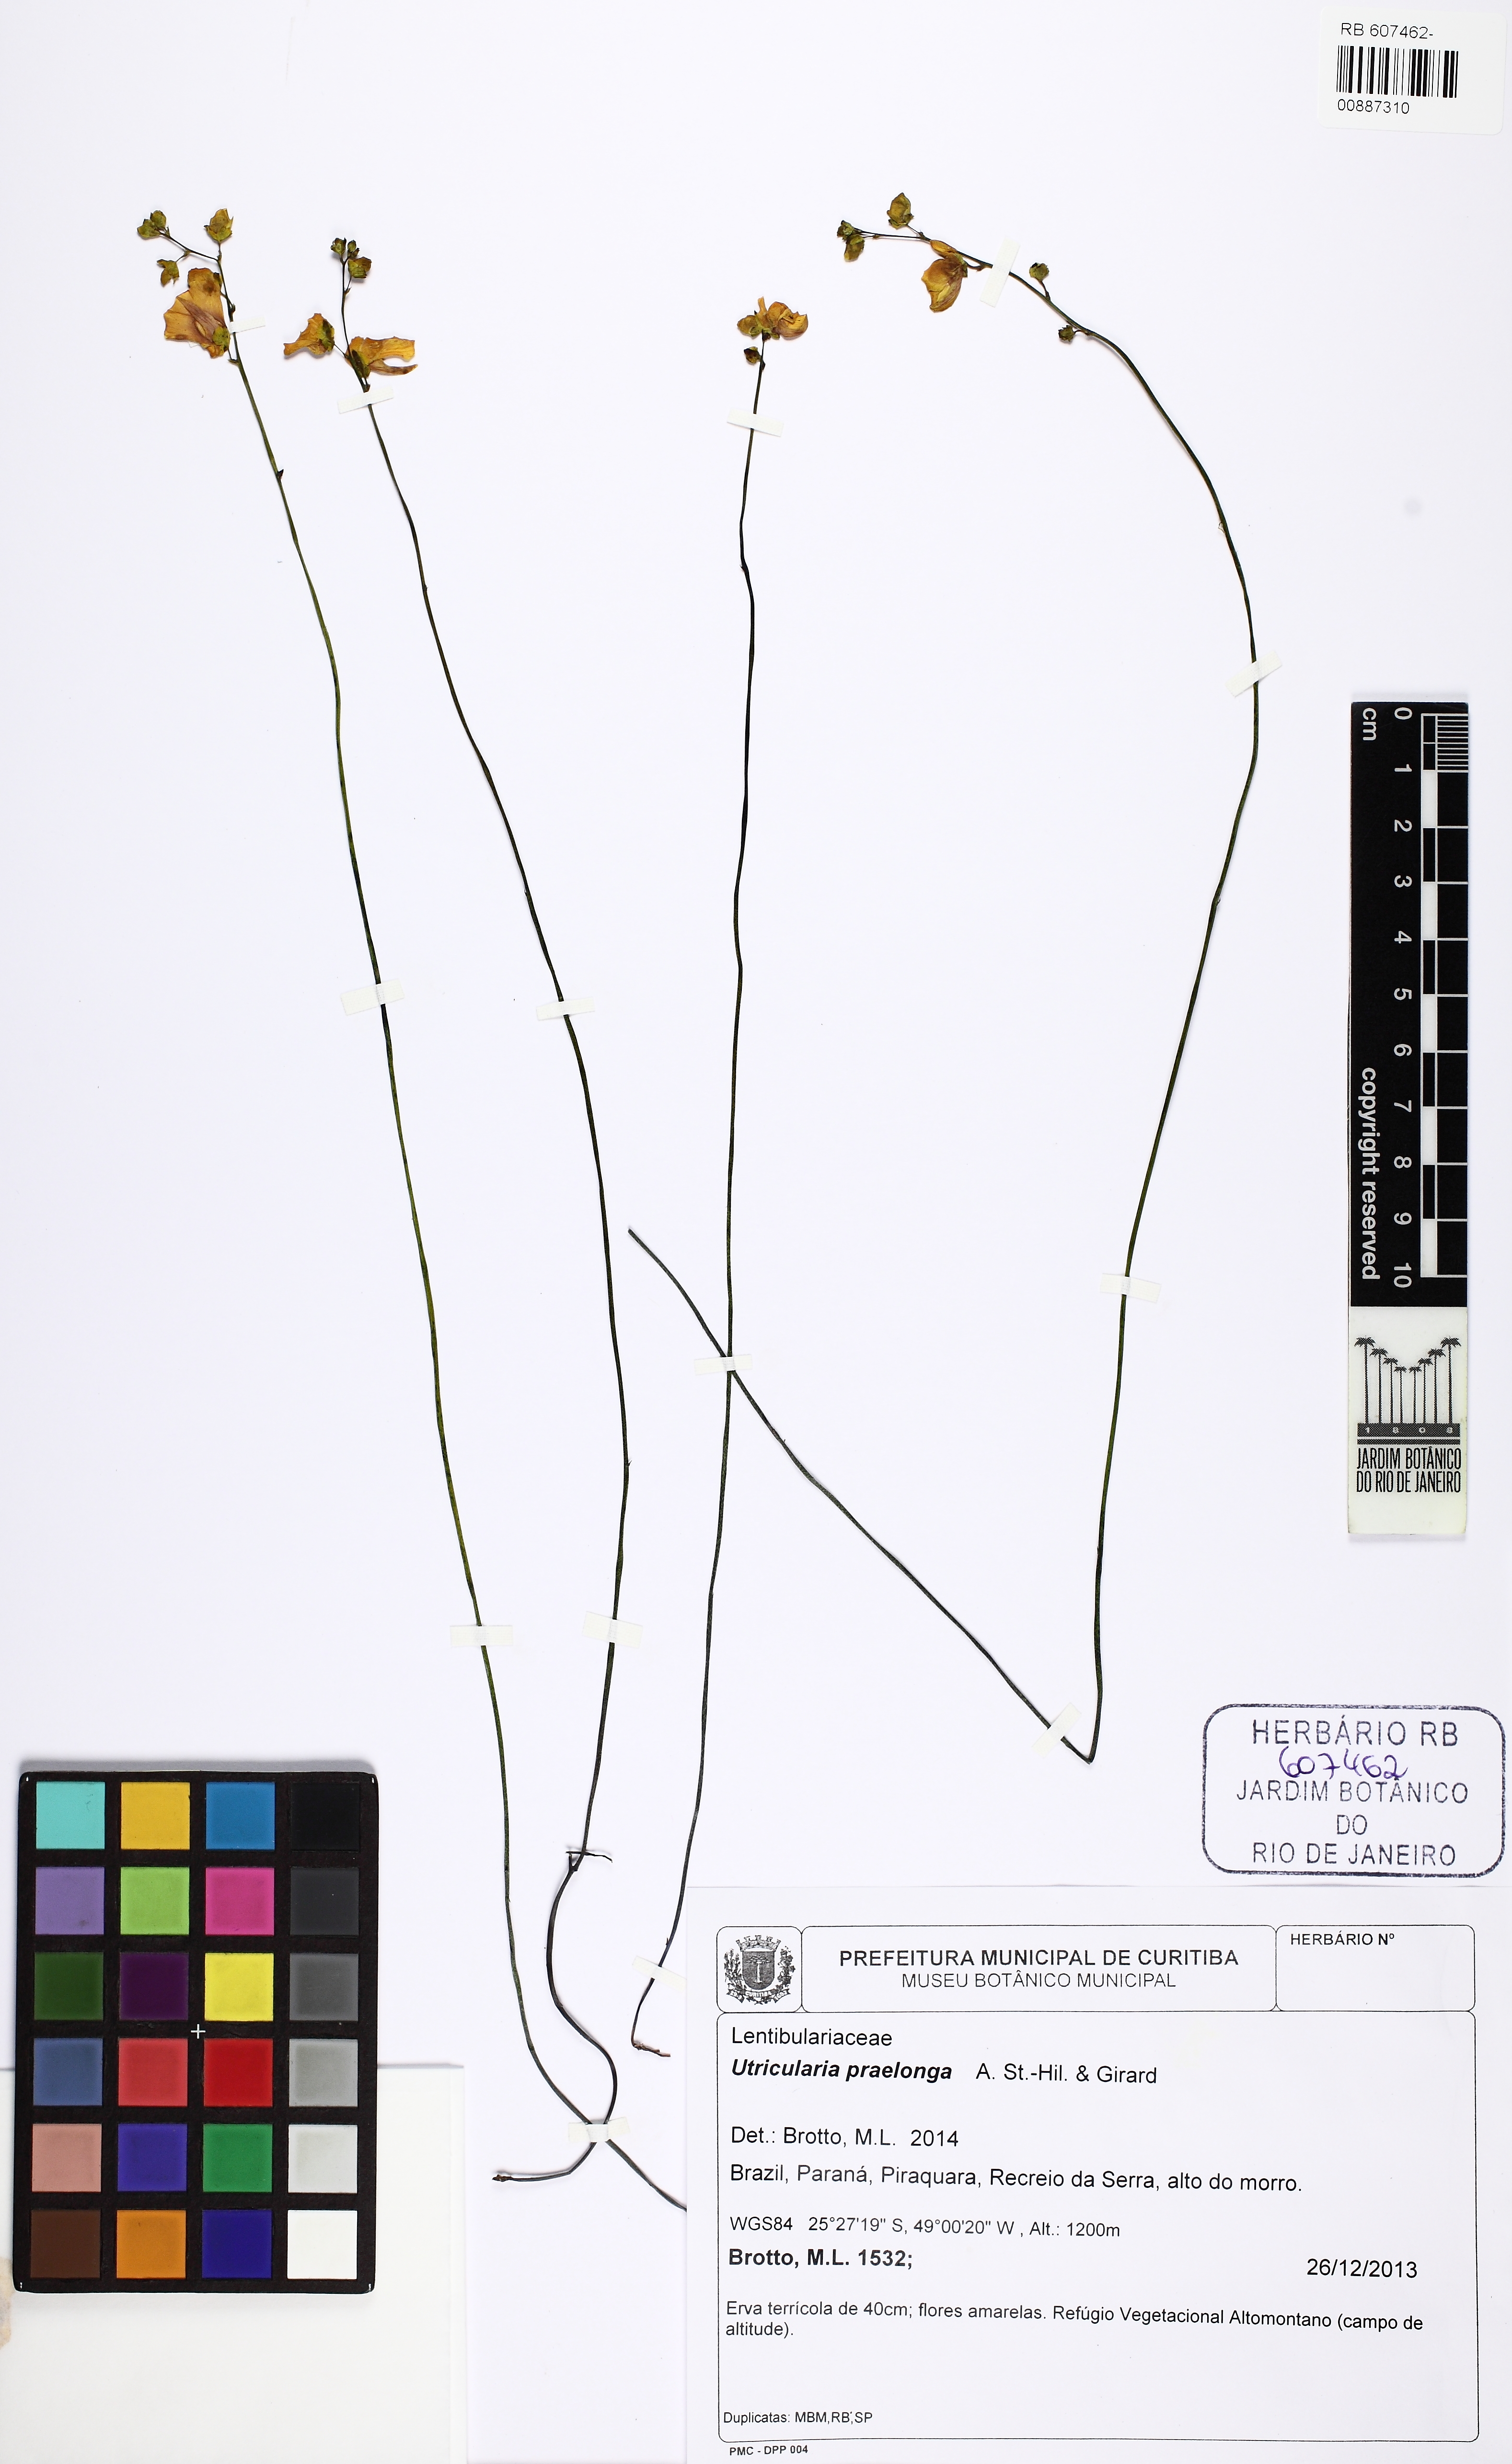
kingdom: Plantae
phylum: Tracheophyta
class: Magnoliopsida
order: Lamiales
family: Lentibulariaceae
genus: Utricularia
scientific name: Utricularia praelonga
